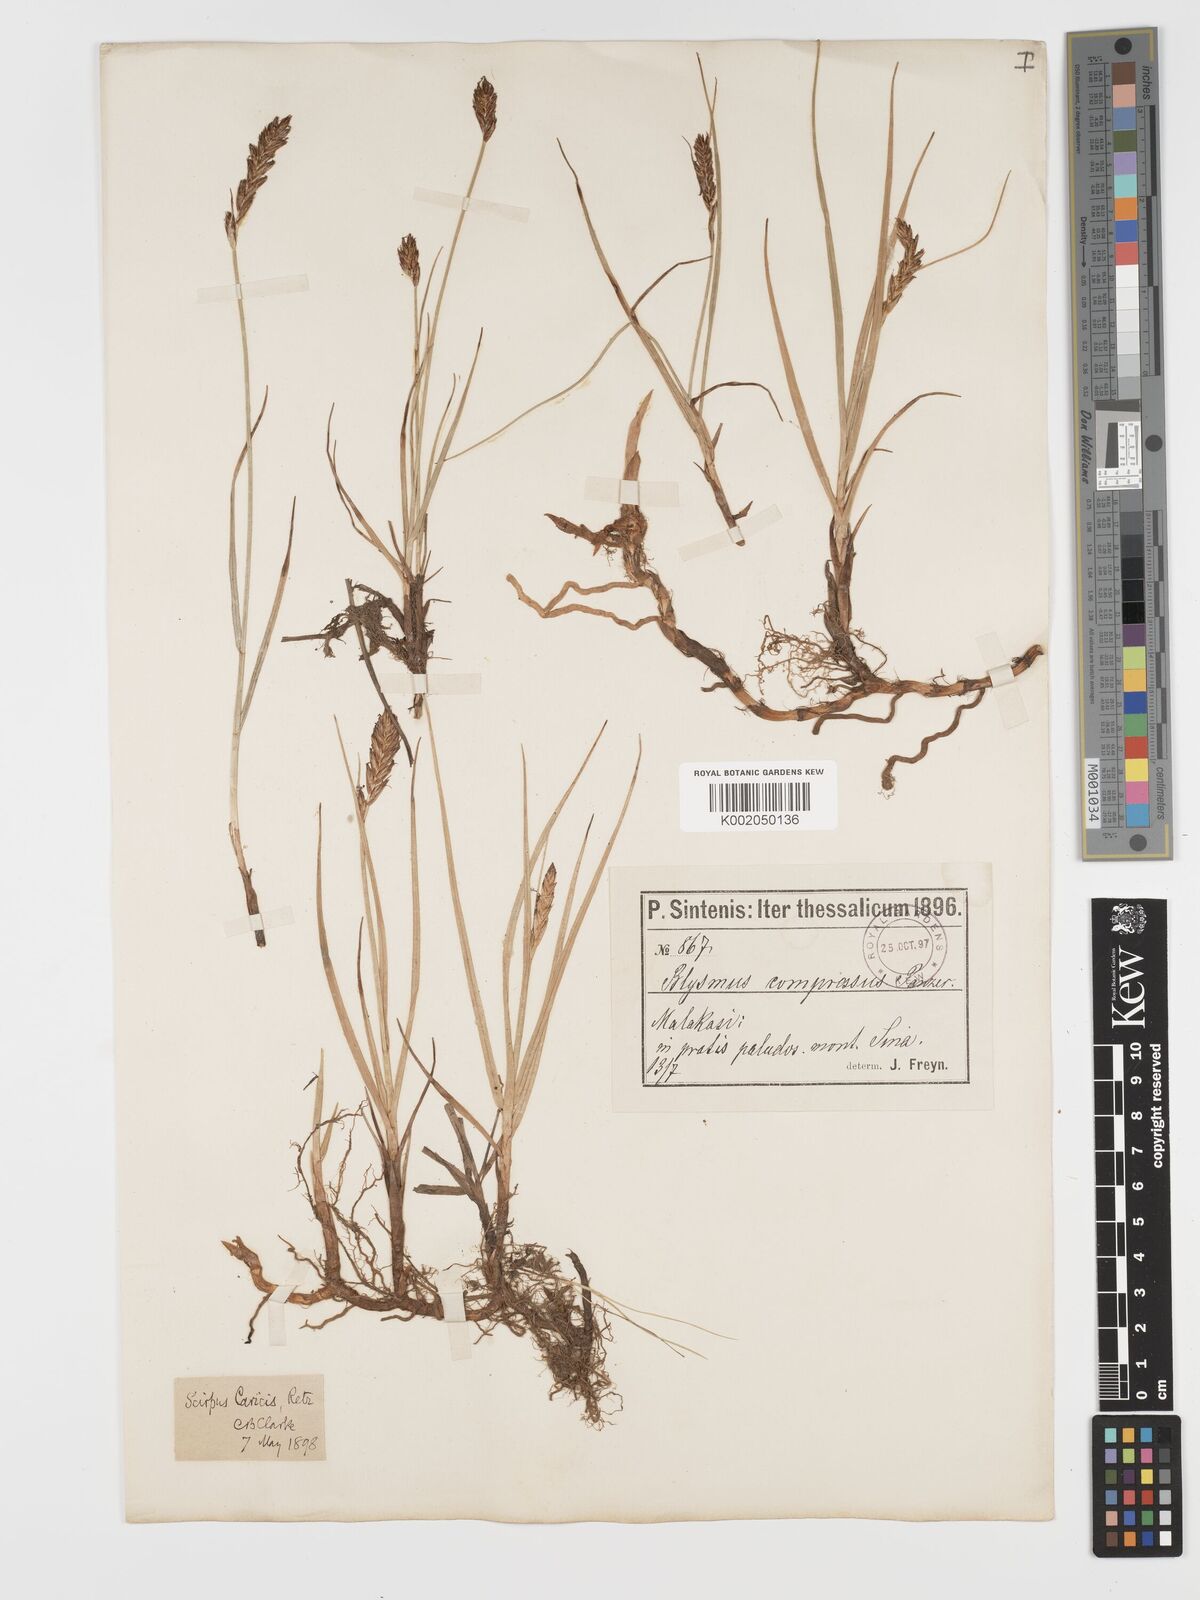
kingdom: Plantae
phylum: Tracheophyta
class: Liliopsida
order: Poales
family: Cyperaceae
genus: Blysmus
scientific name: Blysmus compressus
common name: Flat-sedge
